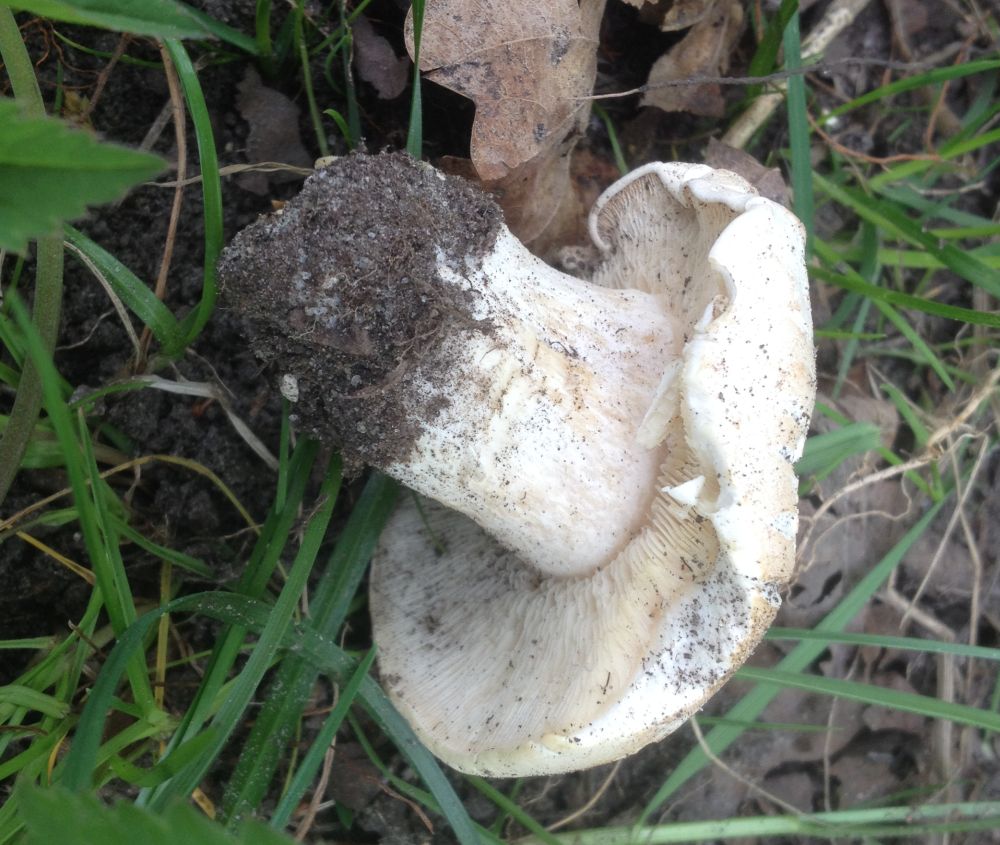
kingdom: Fungi
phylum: Basidiomycota
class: Agaricomycetes
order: Agaricales
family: Lyophyllaceae
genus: Calocybe
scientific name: Calocybe gambosa
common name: vårmusseron
